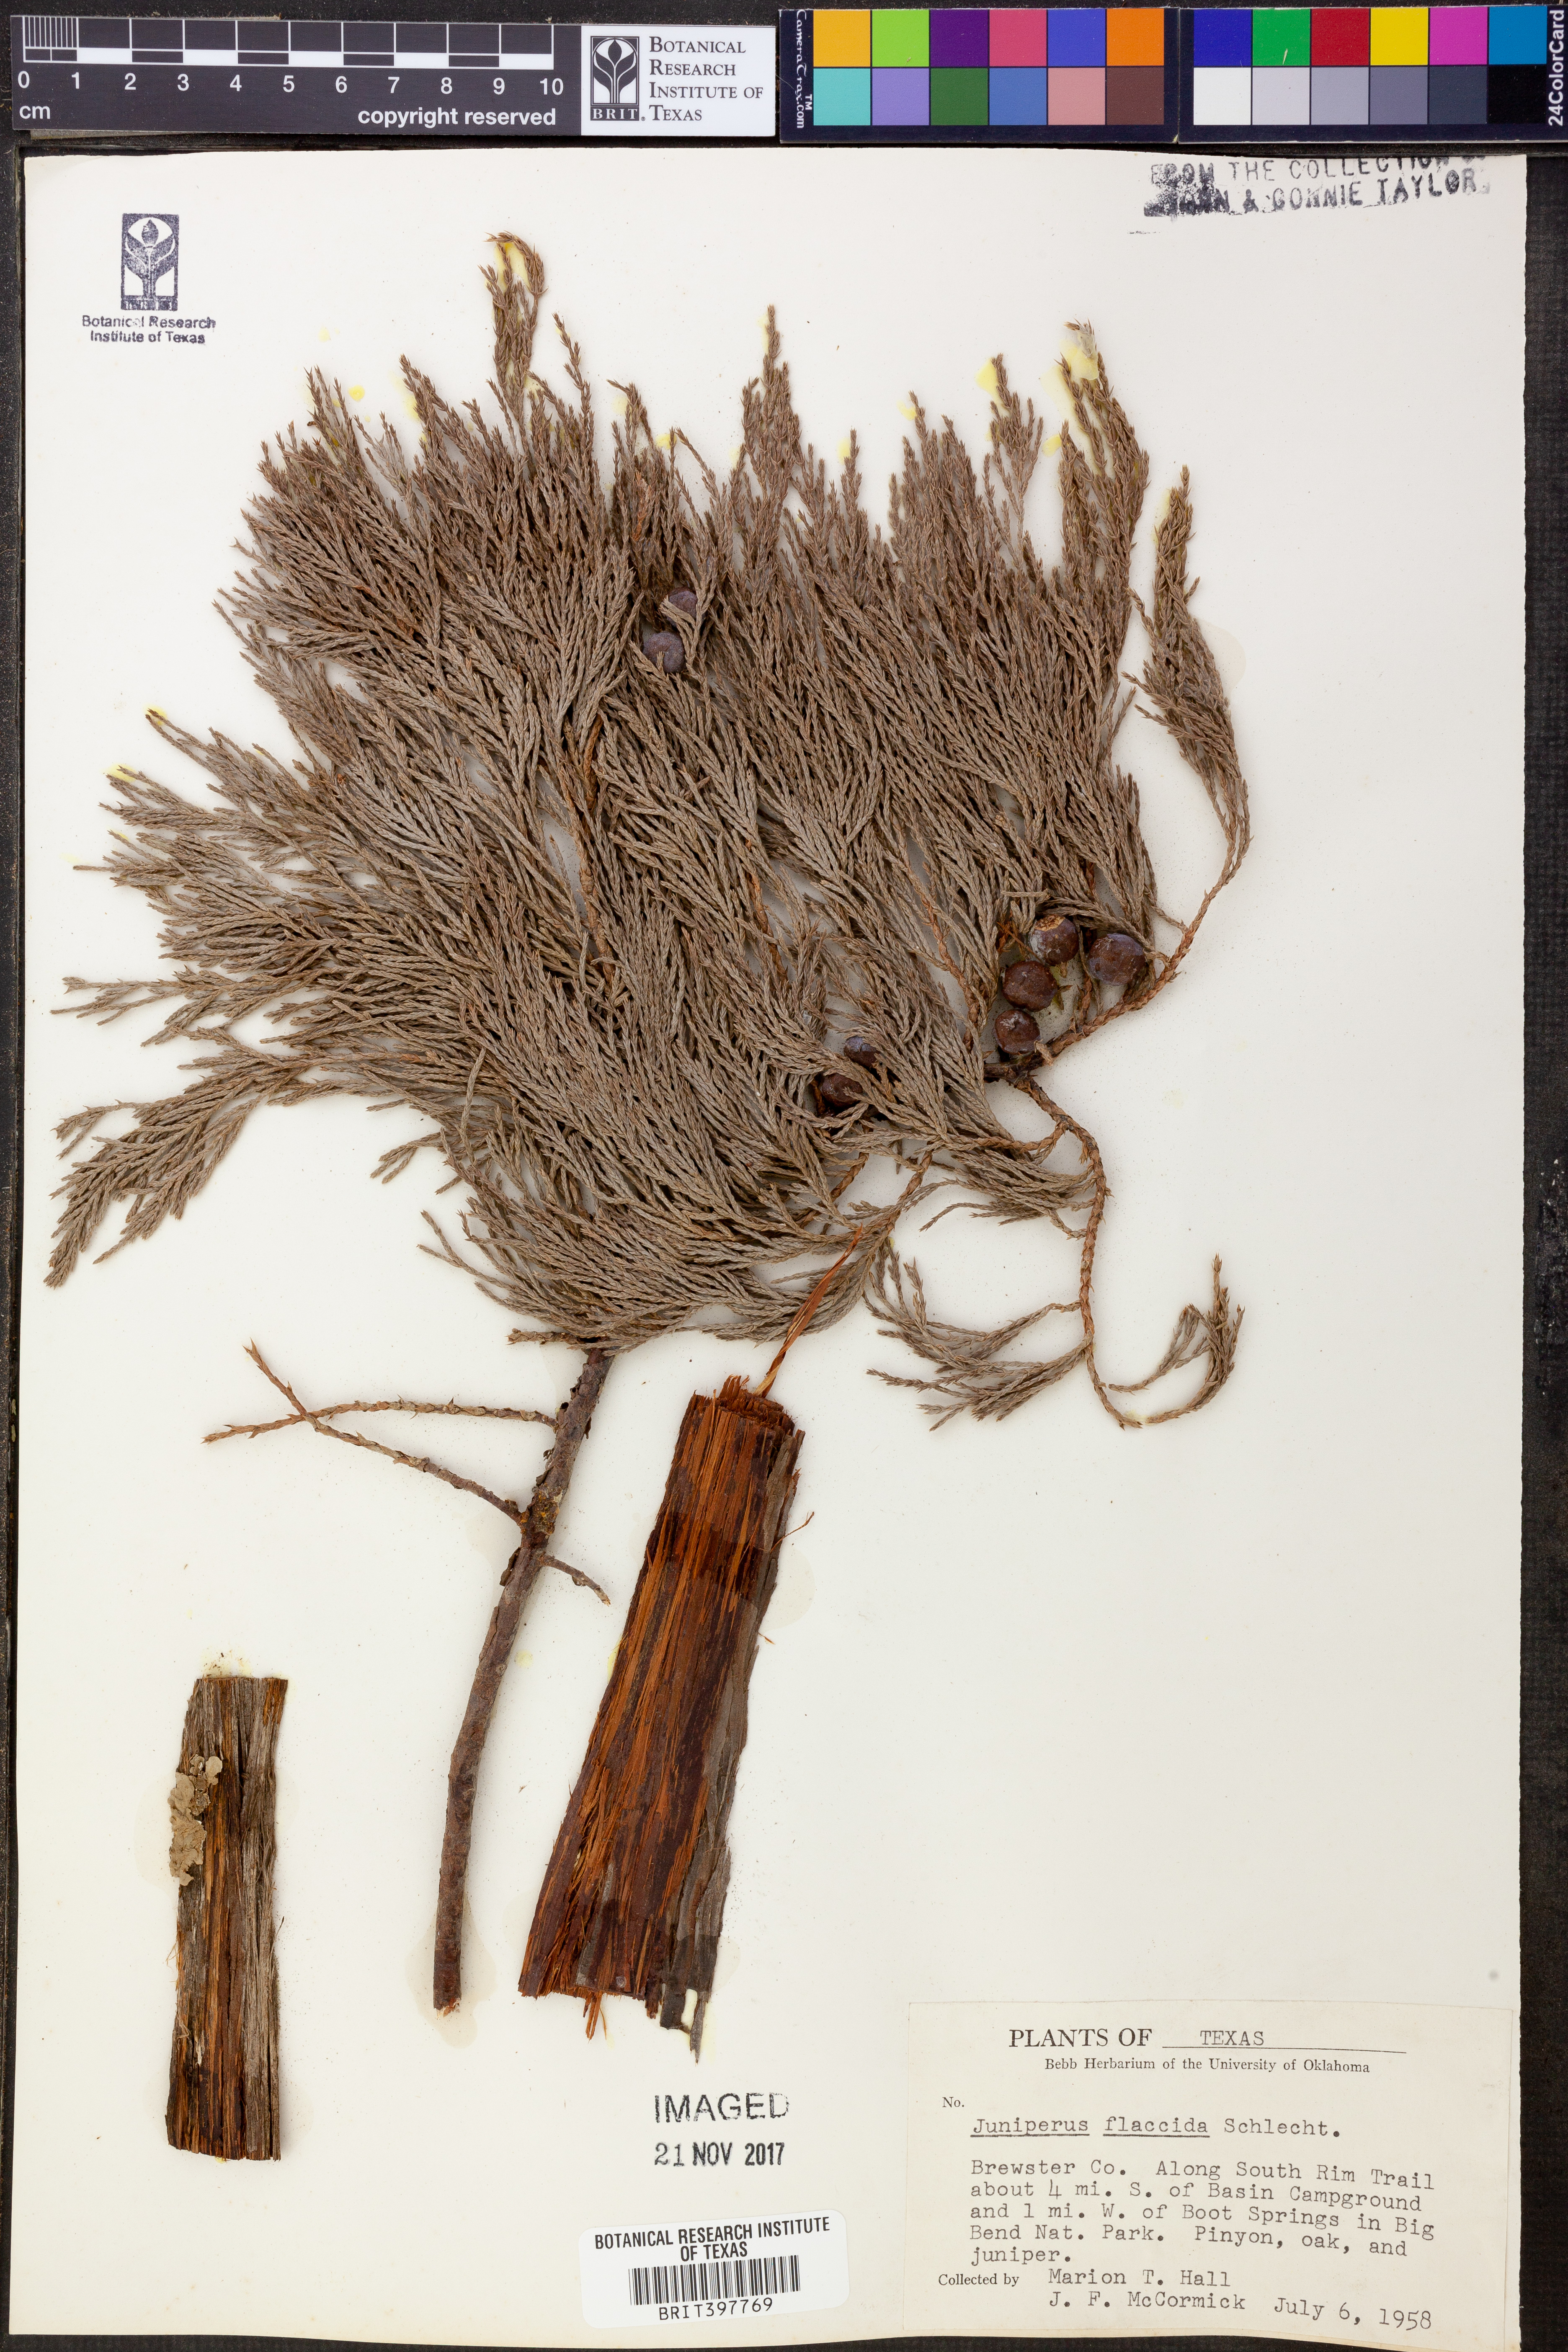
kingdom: Plantae
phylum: Tracheophyta
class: Pinopsida
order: Pinales
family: Cupressaceae
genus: Juniperus
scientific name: Juniperus flaccida
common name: Drooping juniper
